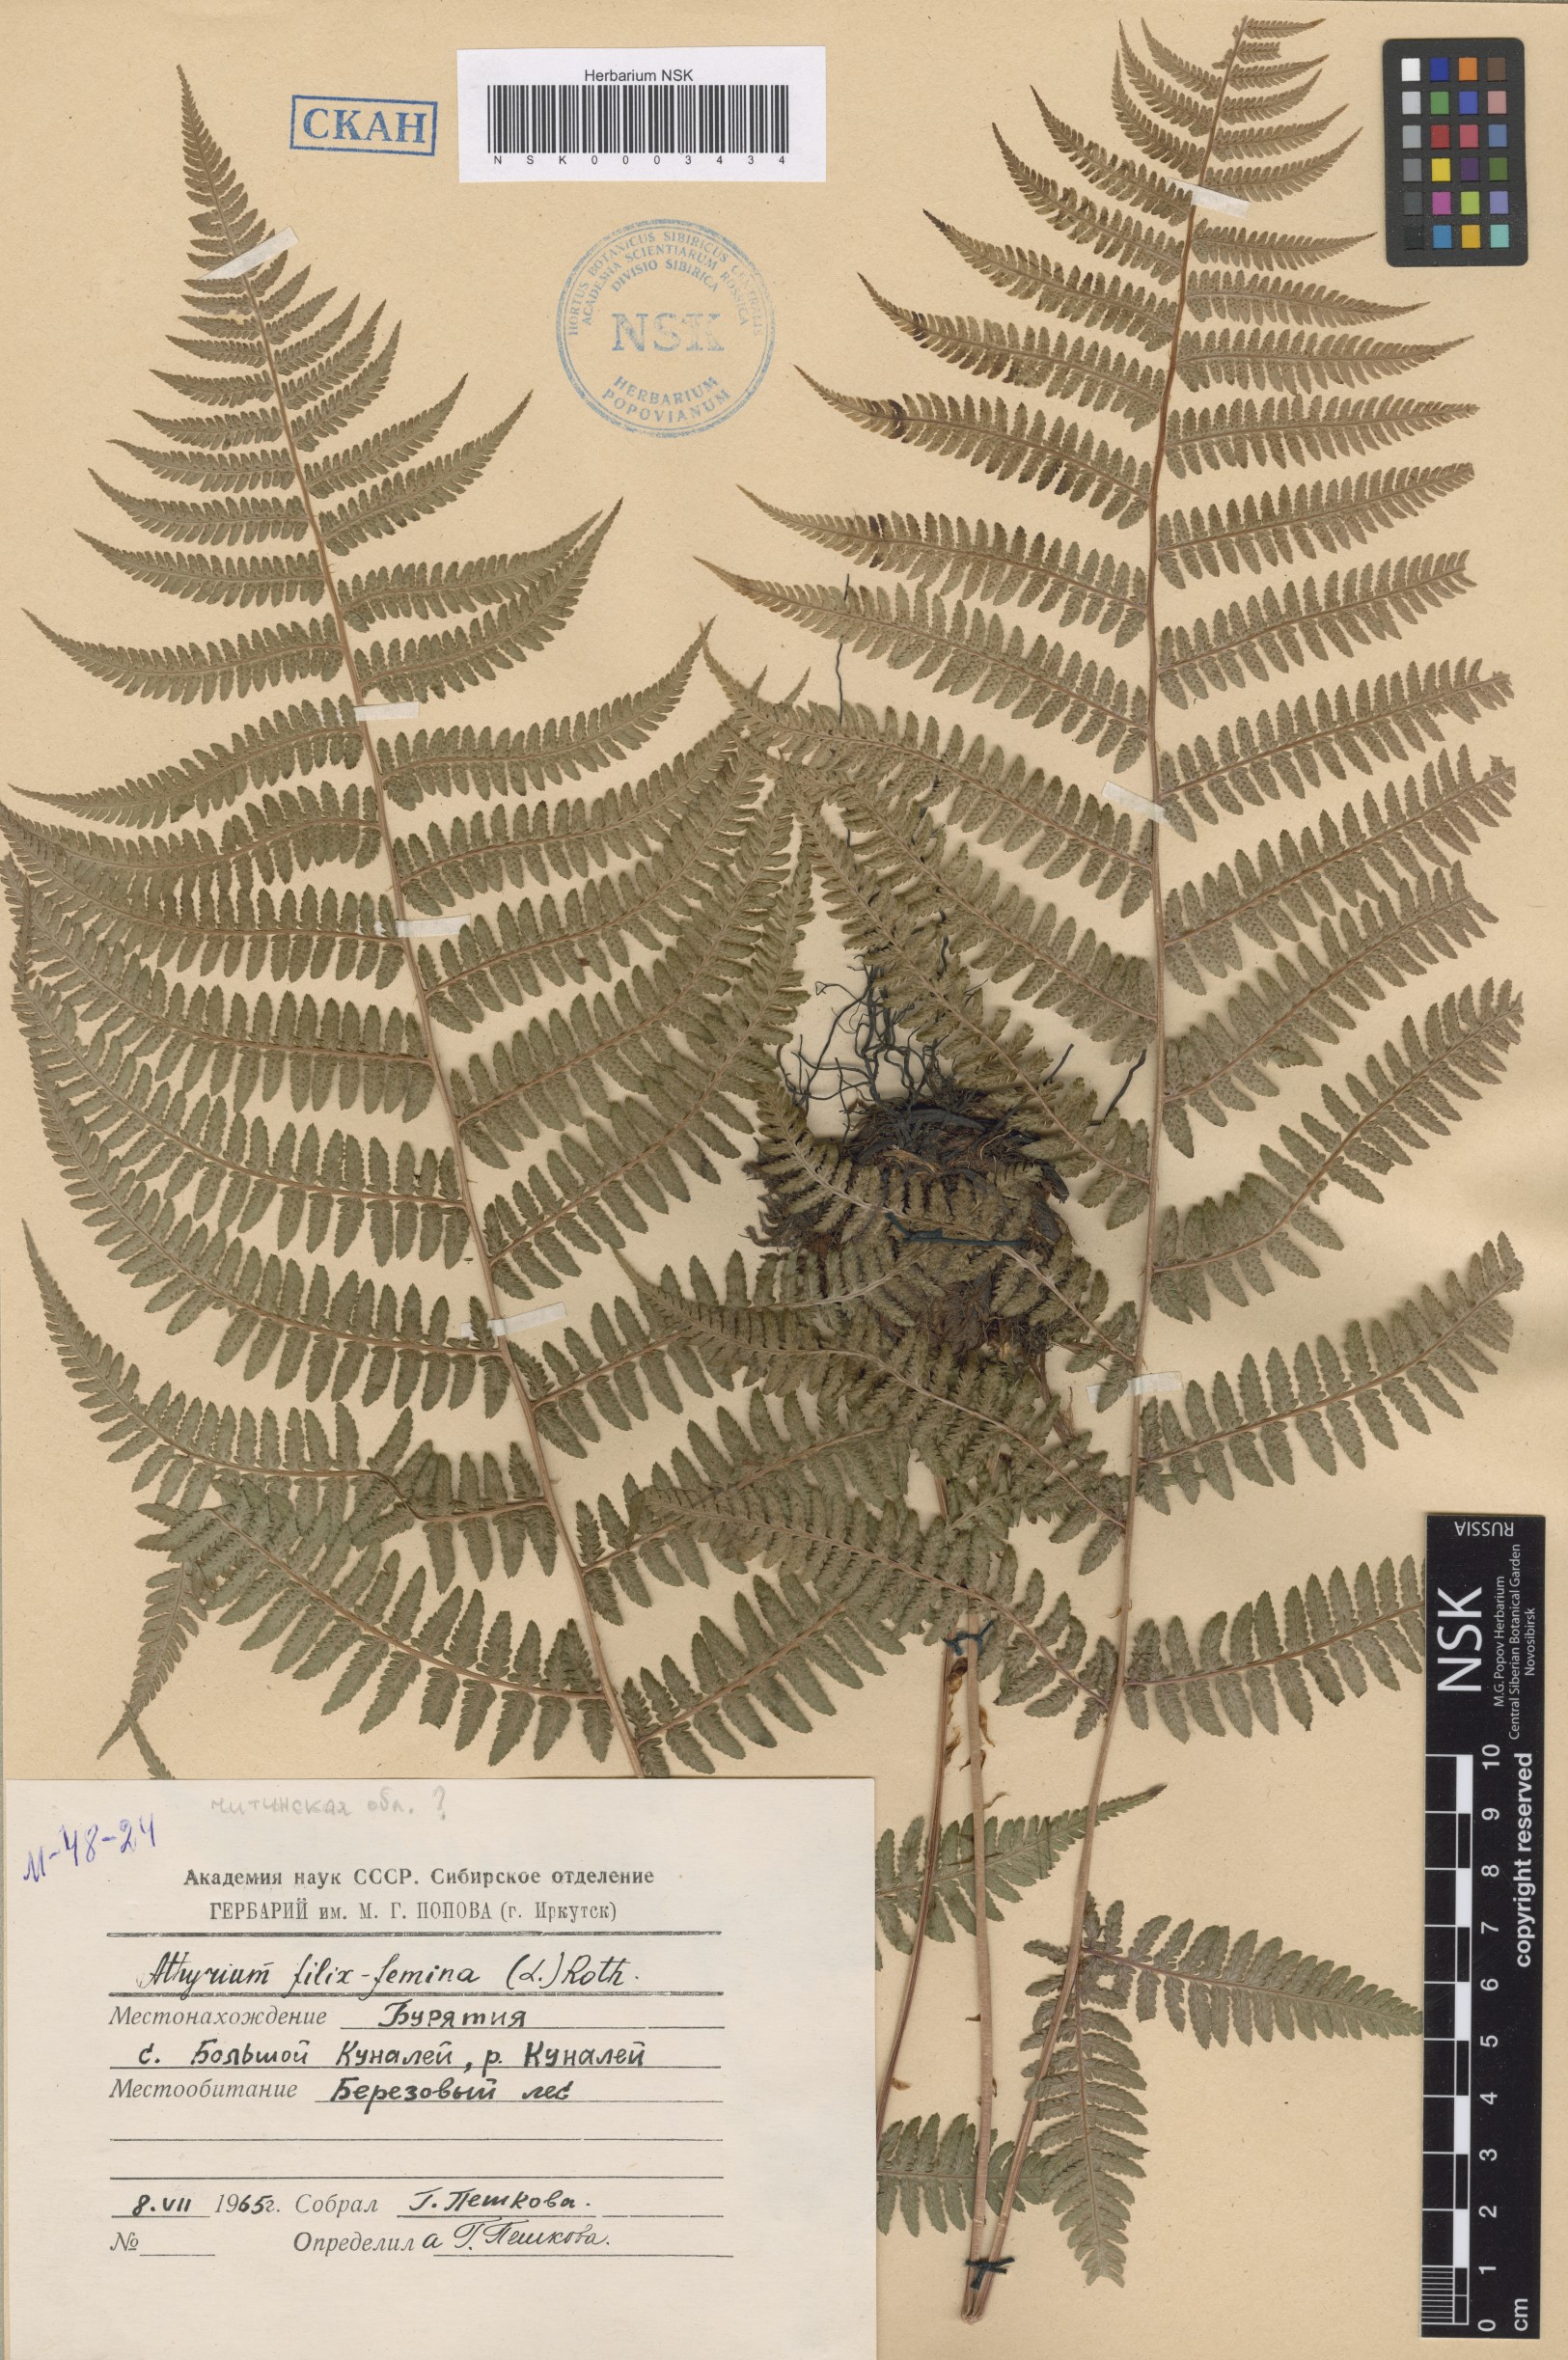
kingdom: Plantae
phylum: Tracheophyta
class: Polypodiopsida
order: Polypodiales
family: Athyriaceae
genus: Athyrium
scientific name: Athyrium filix-femina
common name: Lady fern
